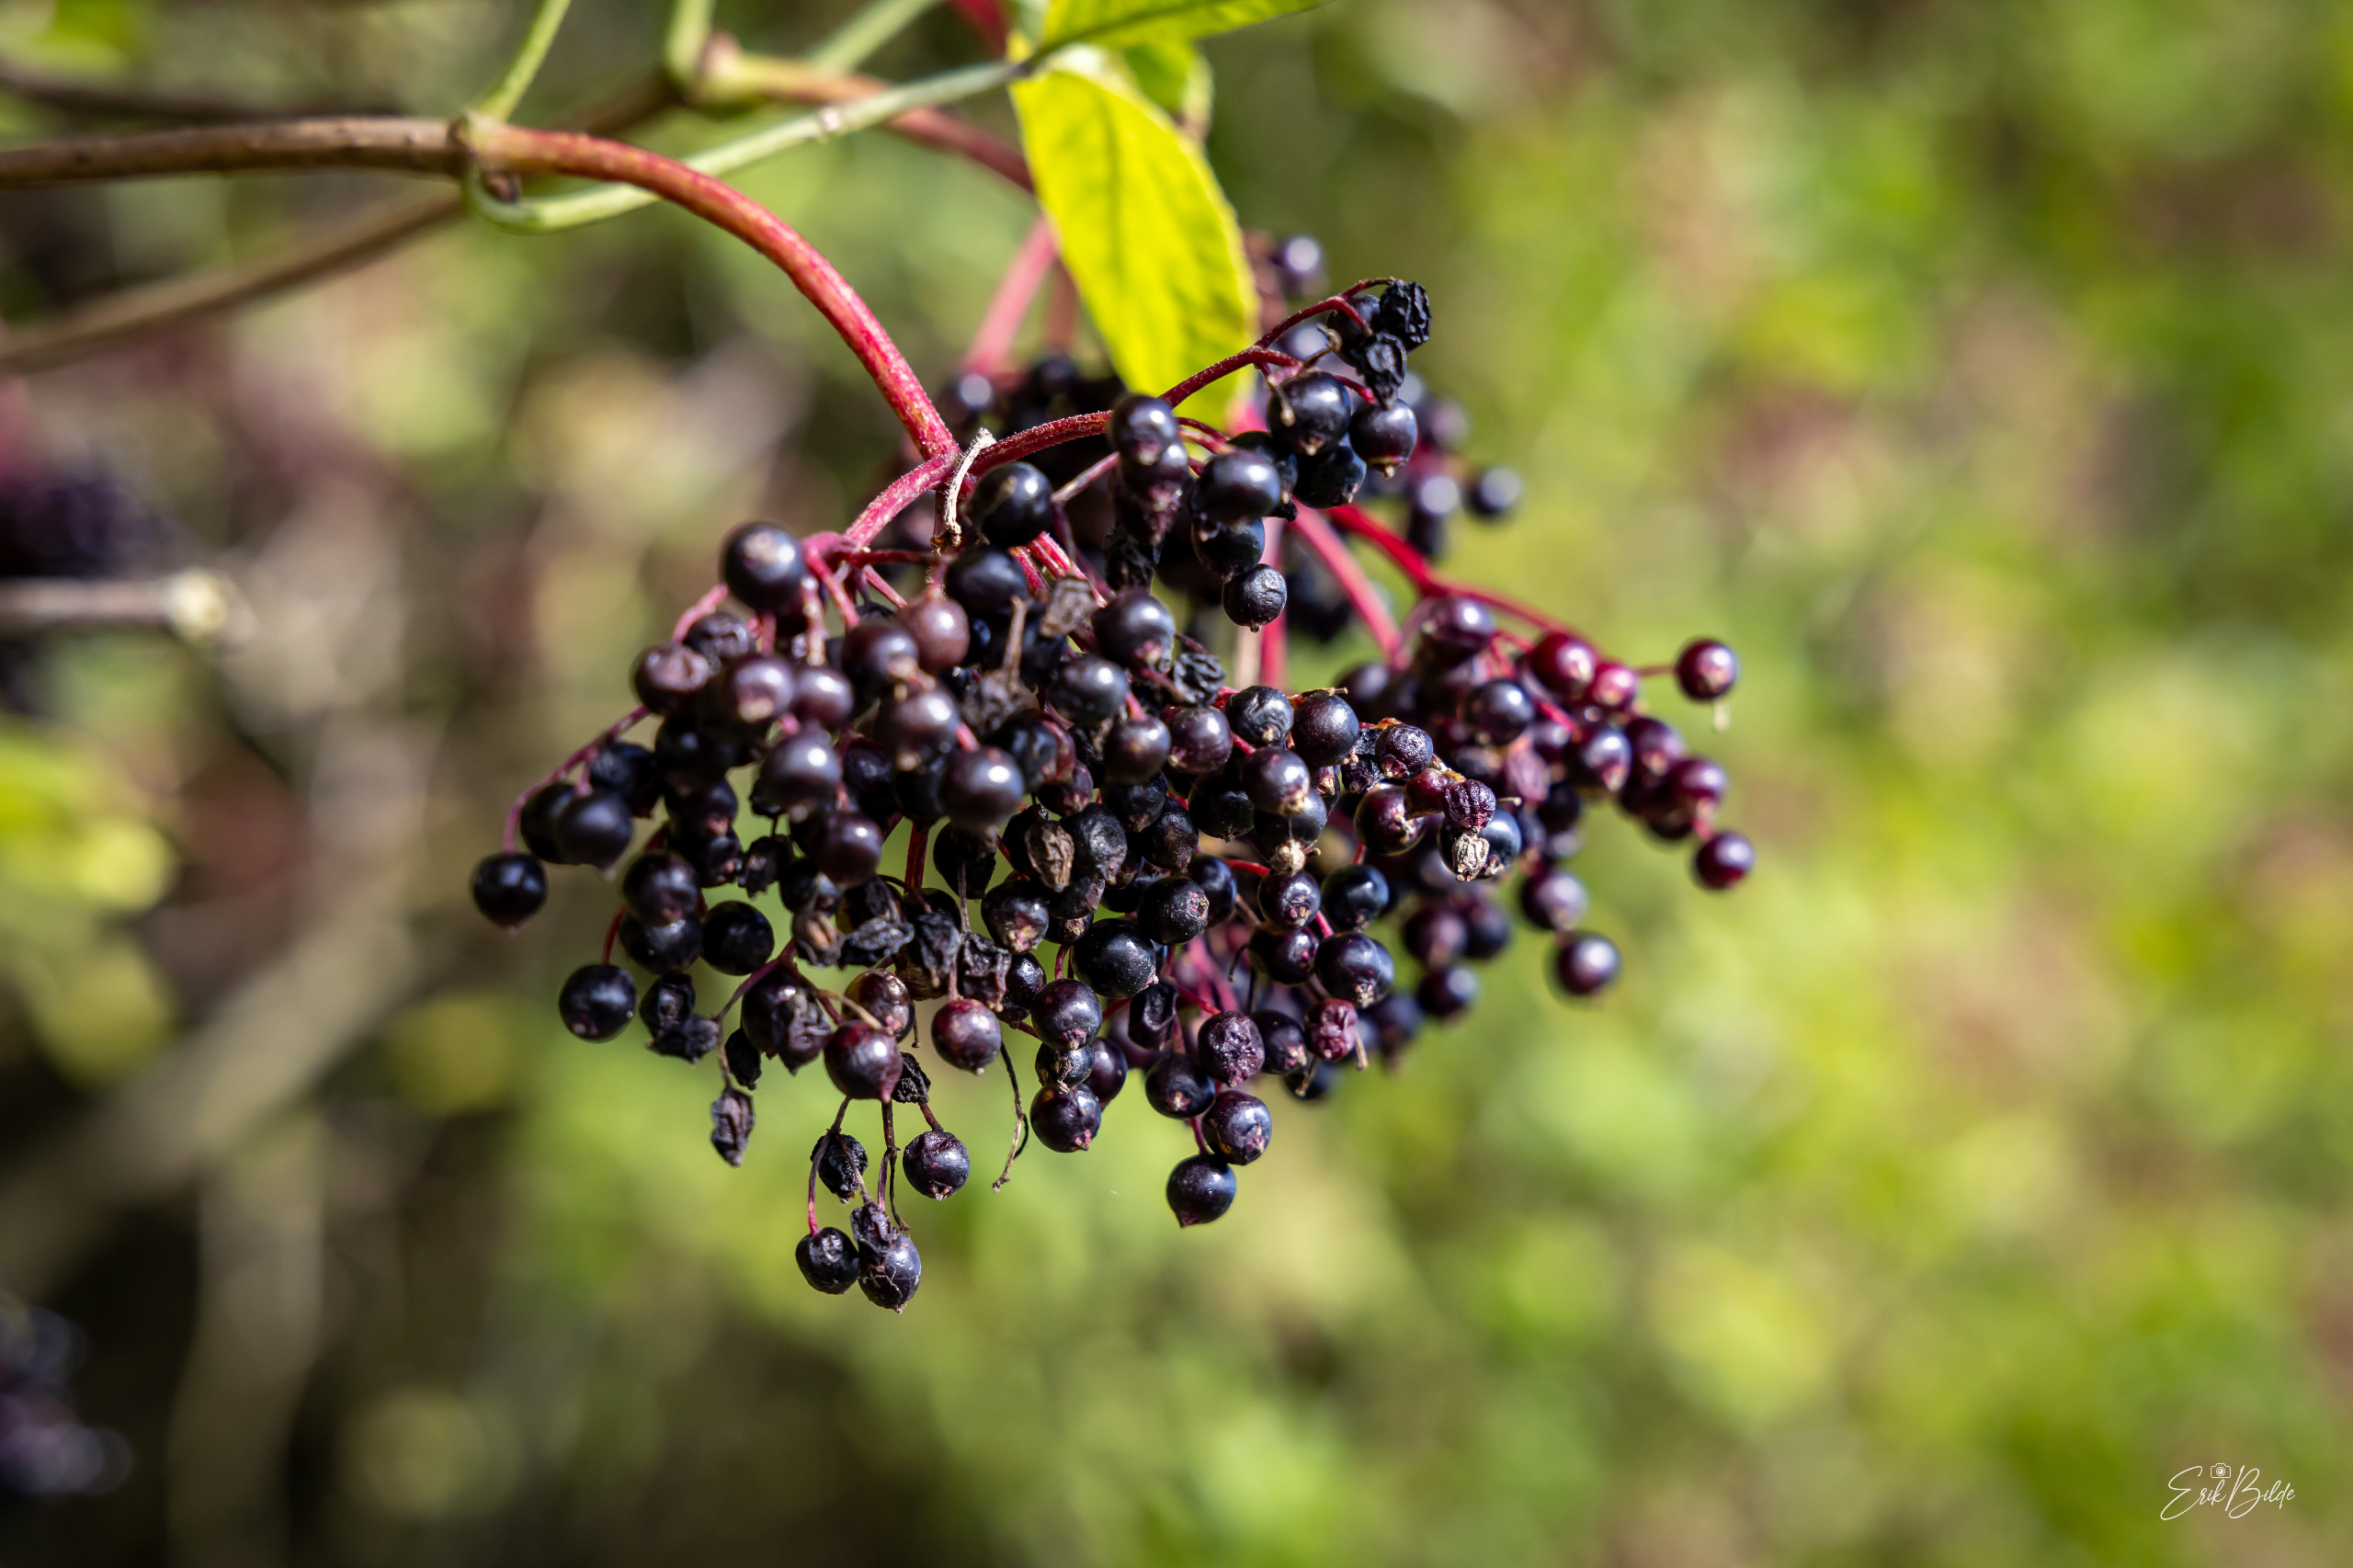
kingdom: Plantae
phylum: Tracheophyta
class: Magnoliopsida
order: Dipsacales
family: Viburnaceae
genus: Sambucus
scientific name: Sambucus nigra
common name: Almindelig hyld
